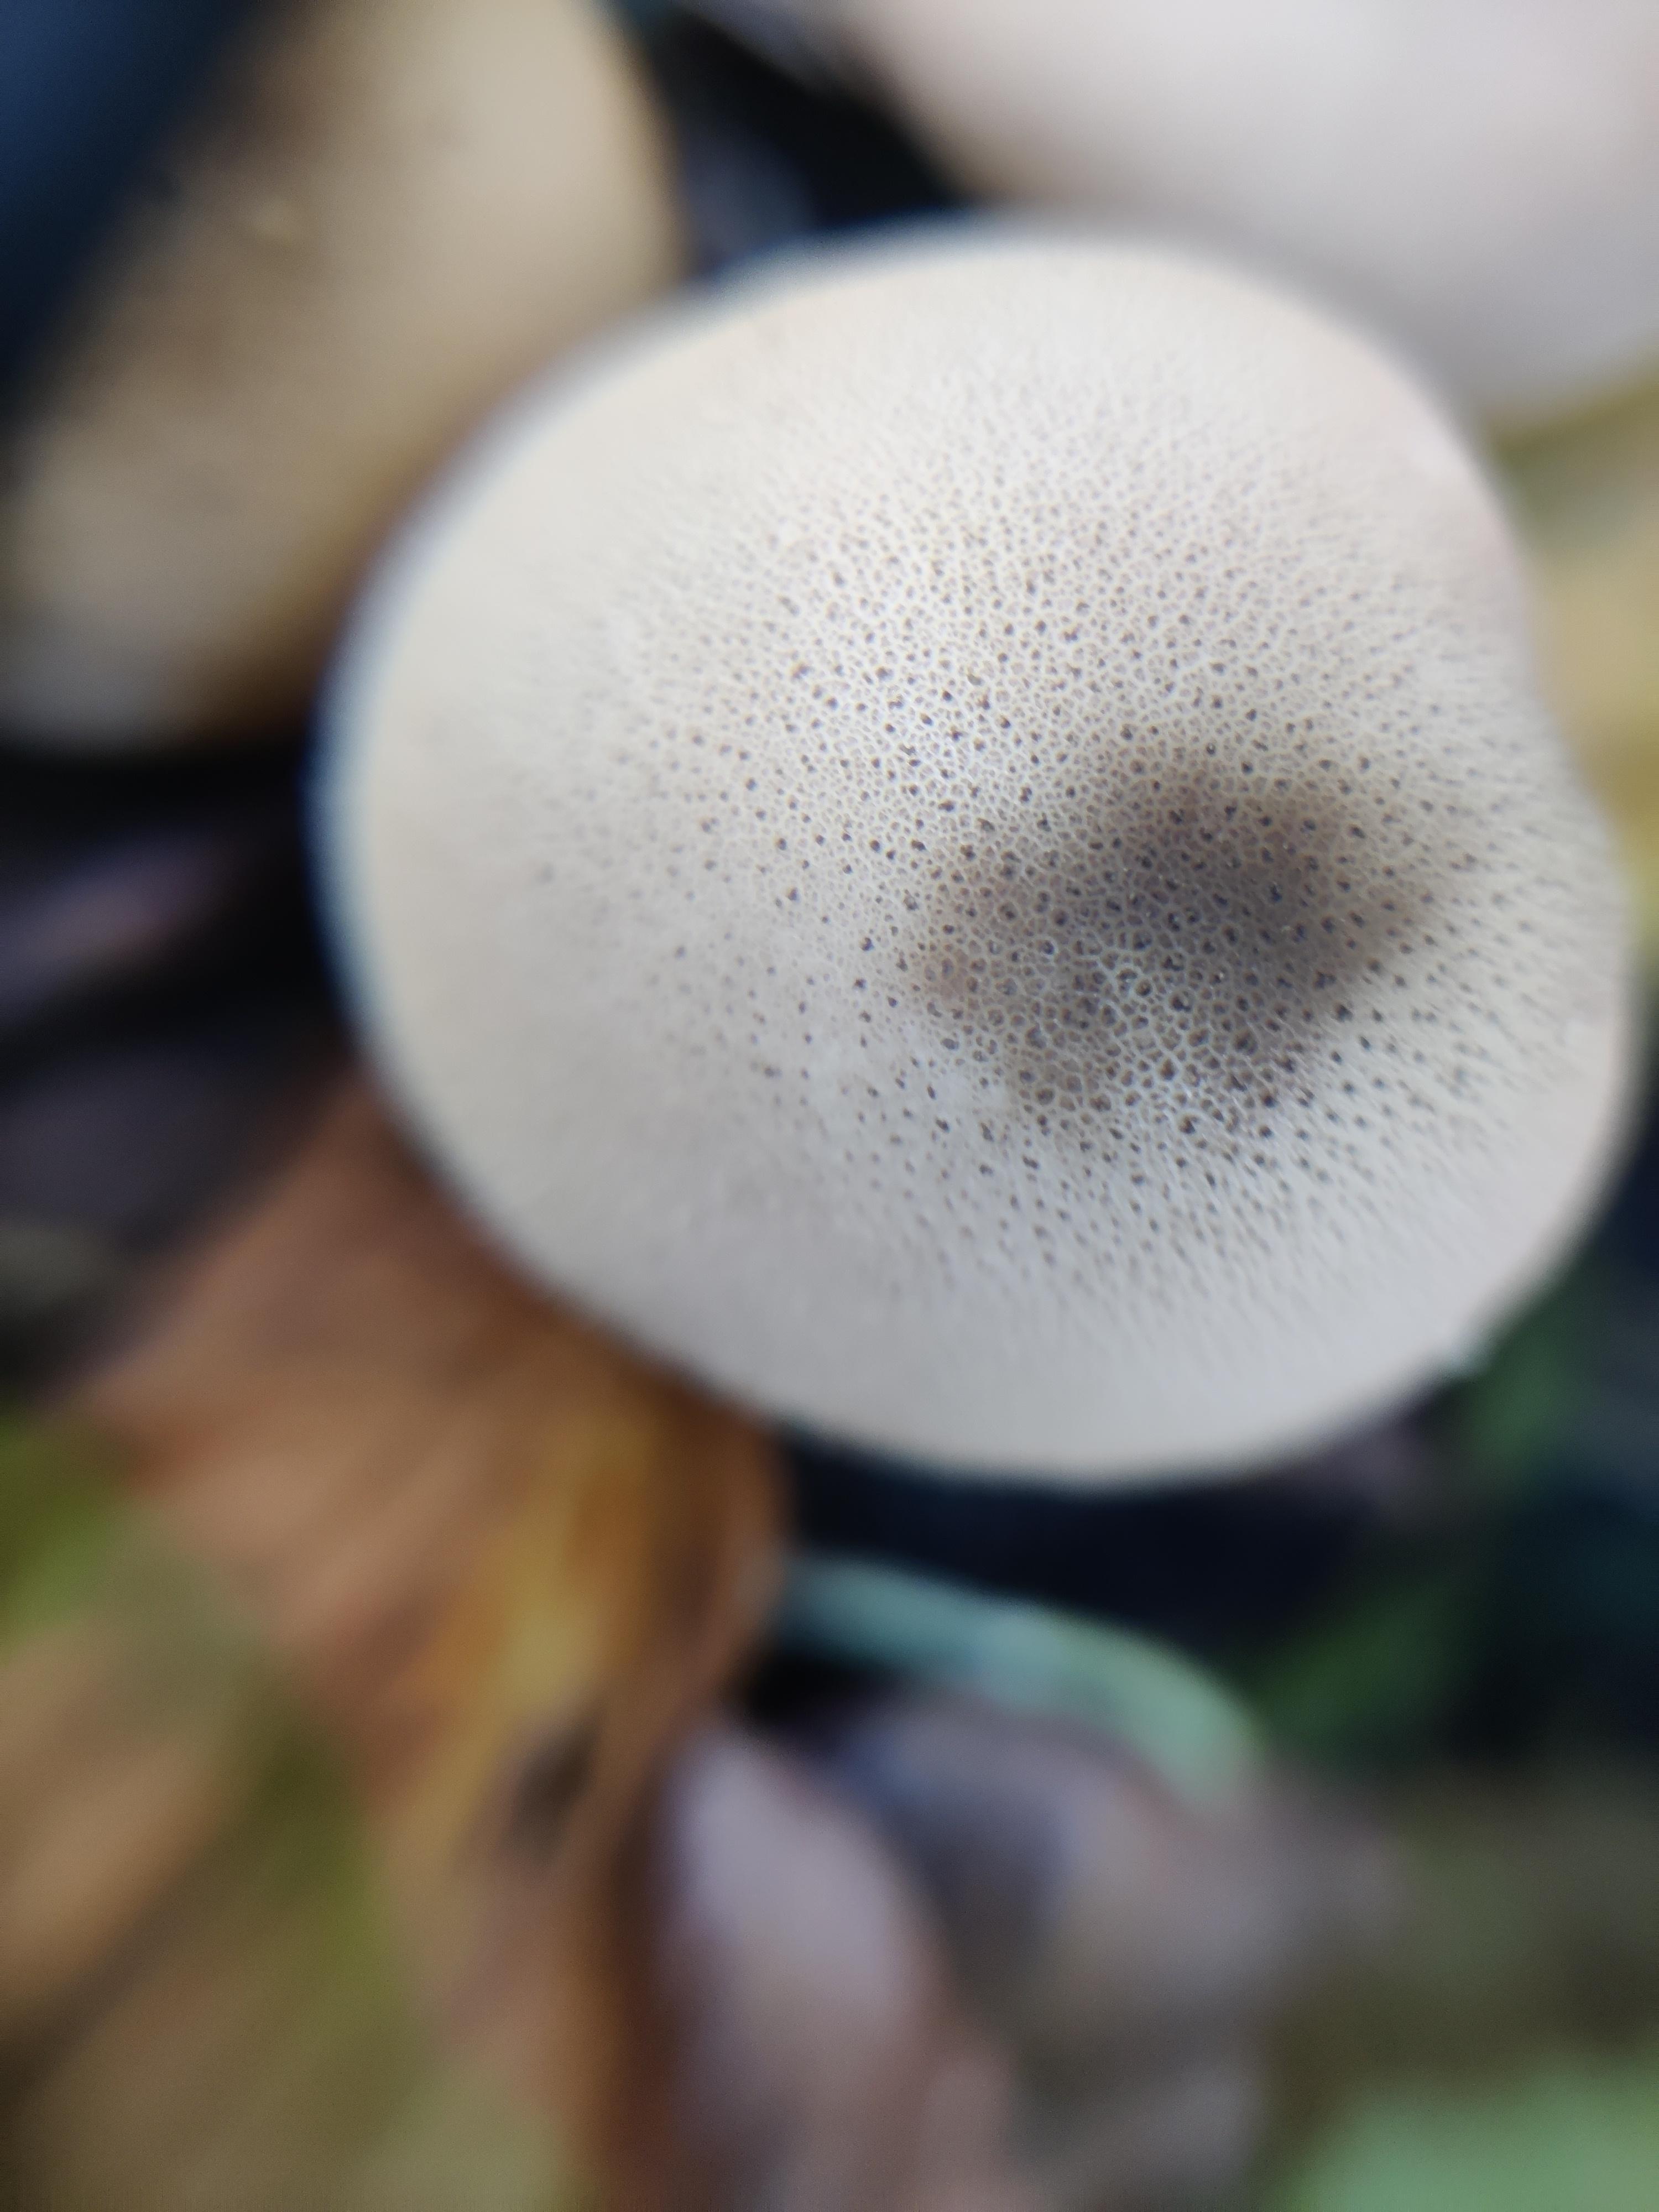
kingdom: Fungi
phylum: Basidiomycota
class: Agaricomycetes
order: Agaricales
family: Lycoperdaceae
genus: Apioperdon
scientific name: Apioperdon pyriforme
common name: pære-støvbold
